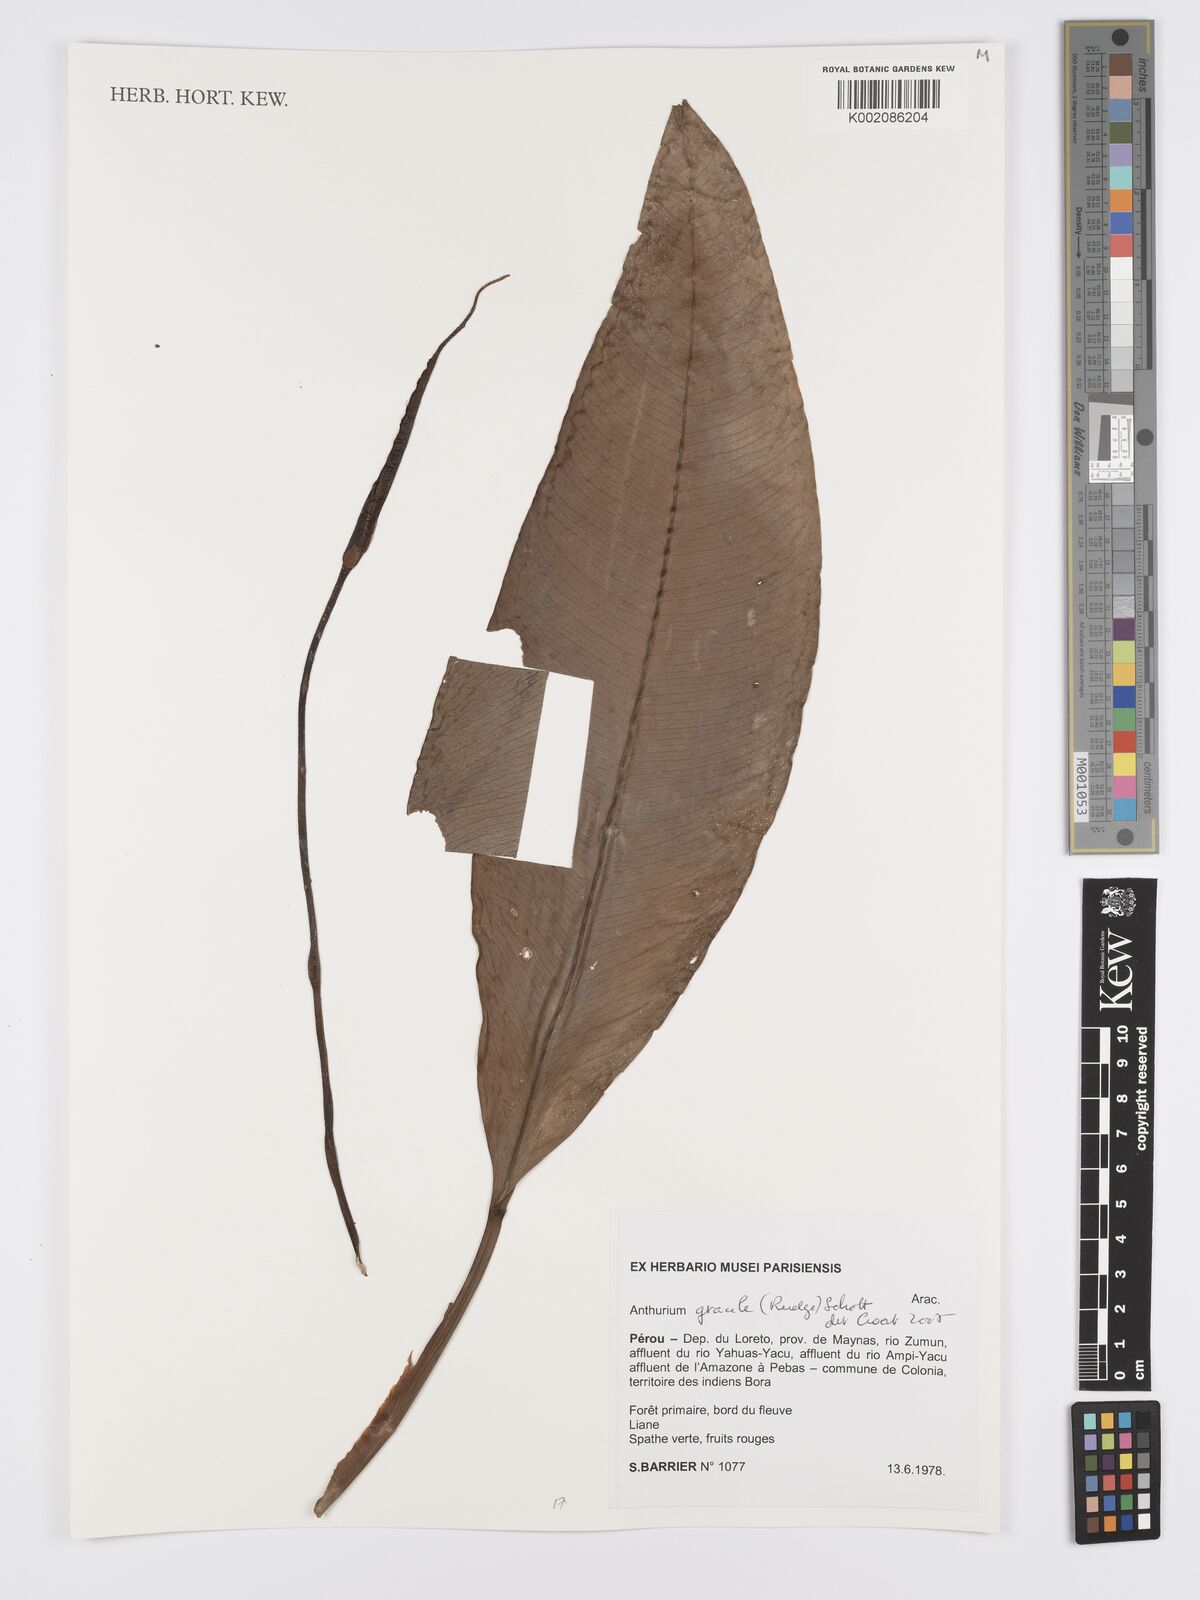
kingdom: Plantae
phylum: Tracheophyta
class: Liliopsida
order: Alismatales
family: Araceae
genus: Anthurium
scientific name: Anthurium gracile
